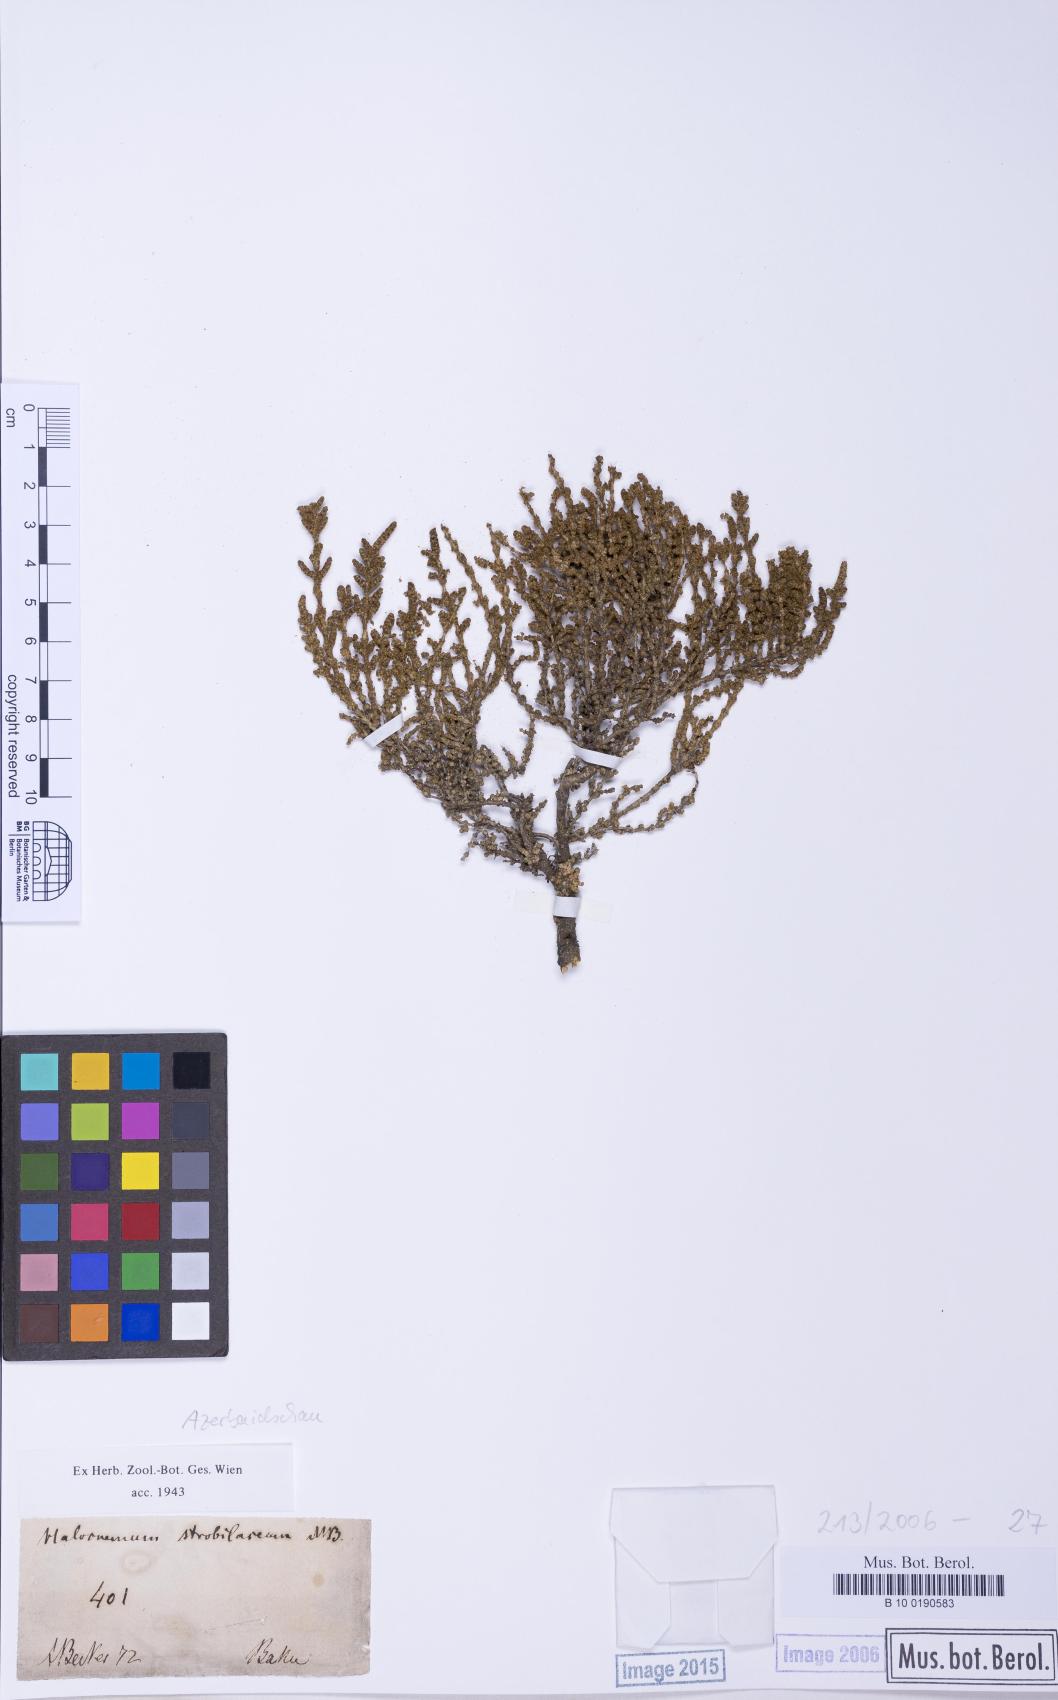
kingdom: Plantae
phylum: Tracheophyta
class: Magnoliopsida
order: Caryophyllales
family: Amaranthaceae
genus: Halocnemum
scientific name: Halocnemum strobilaceum
